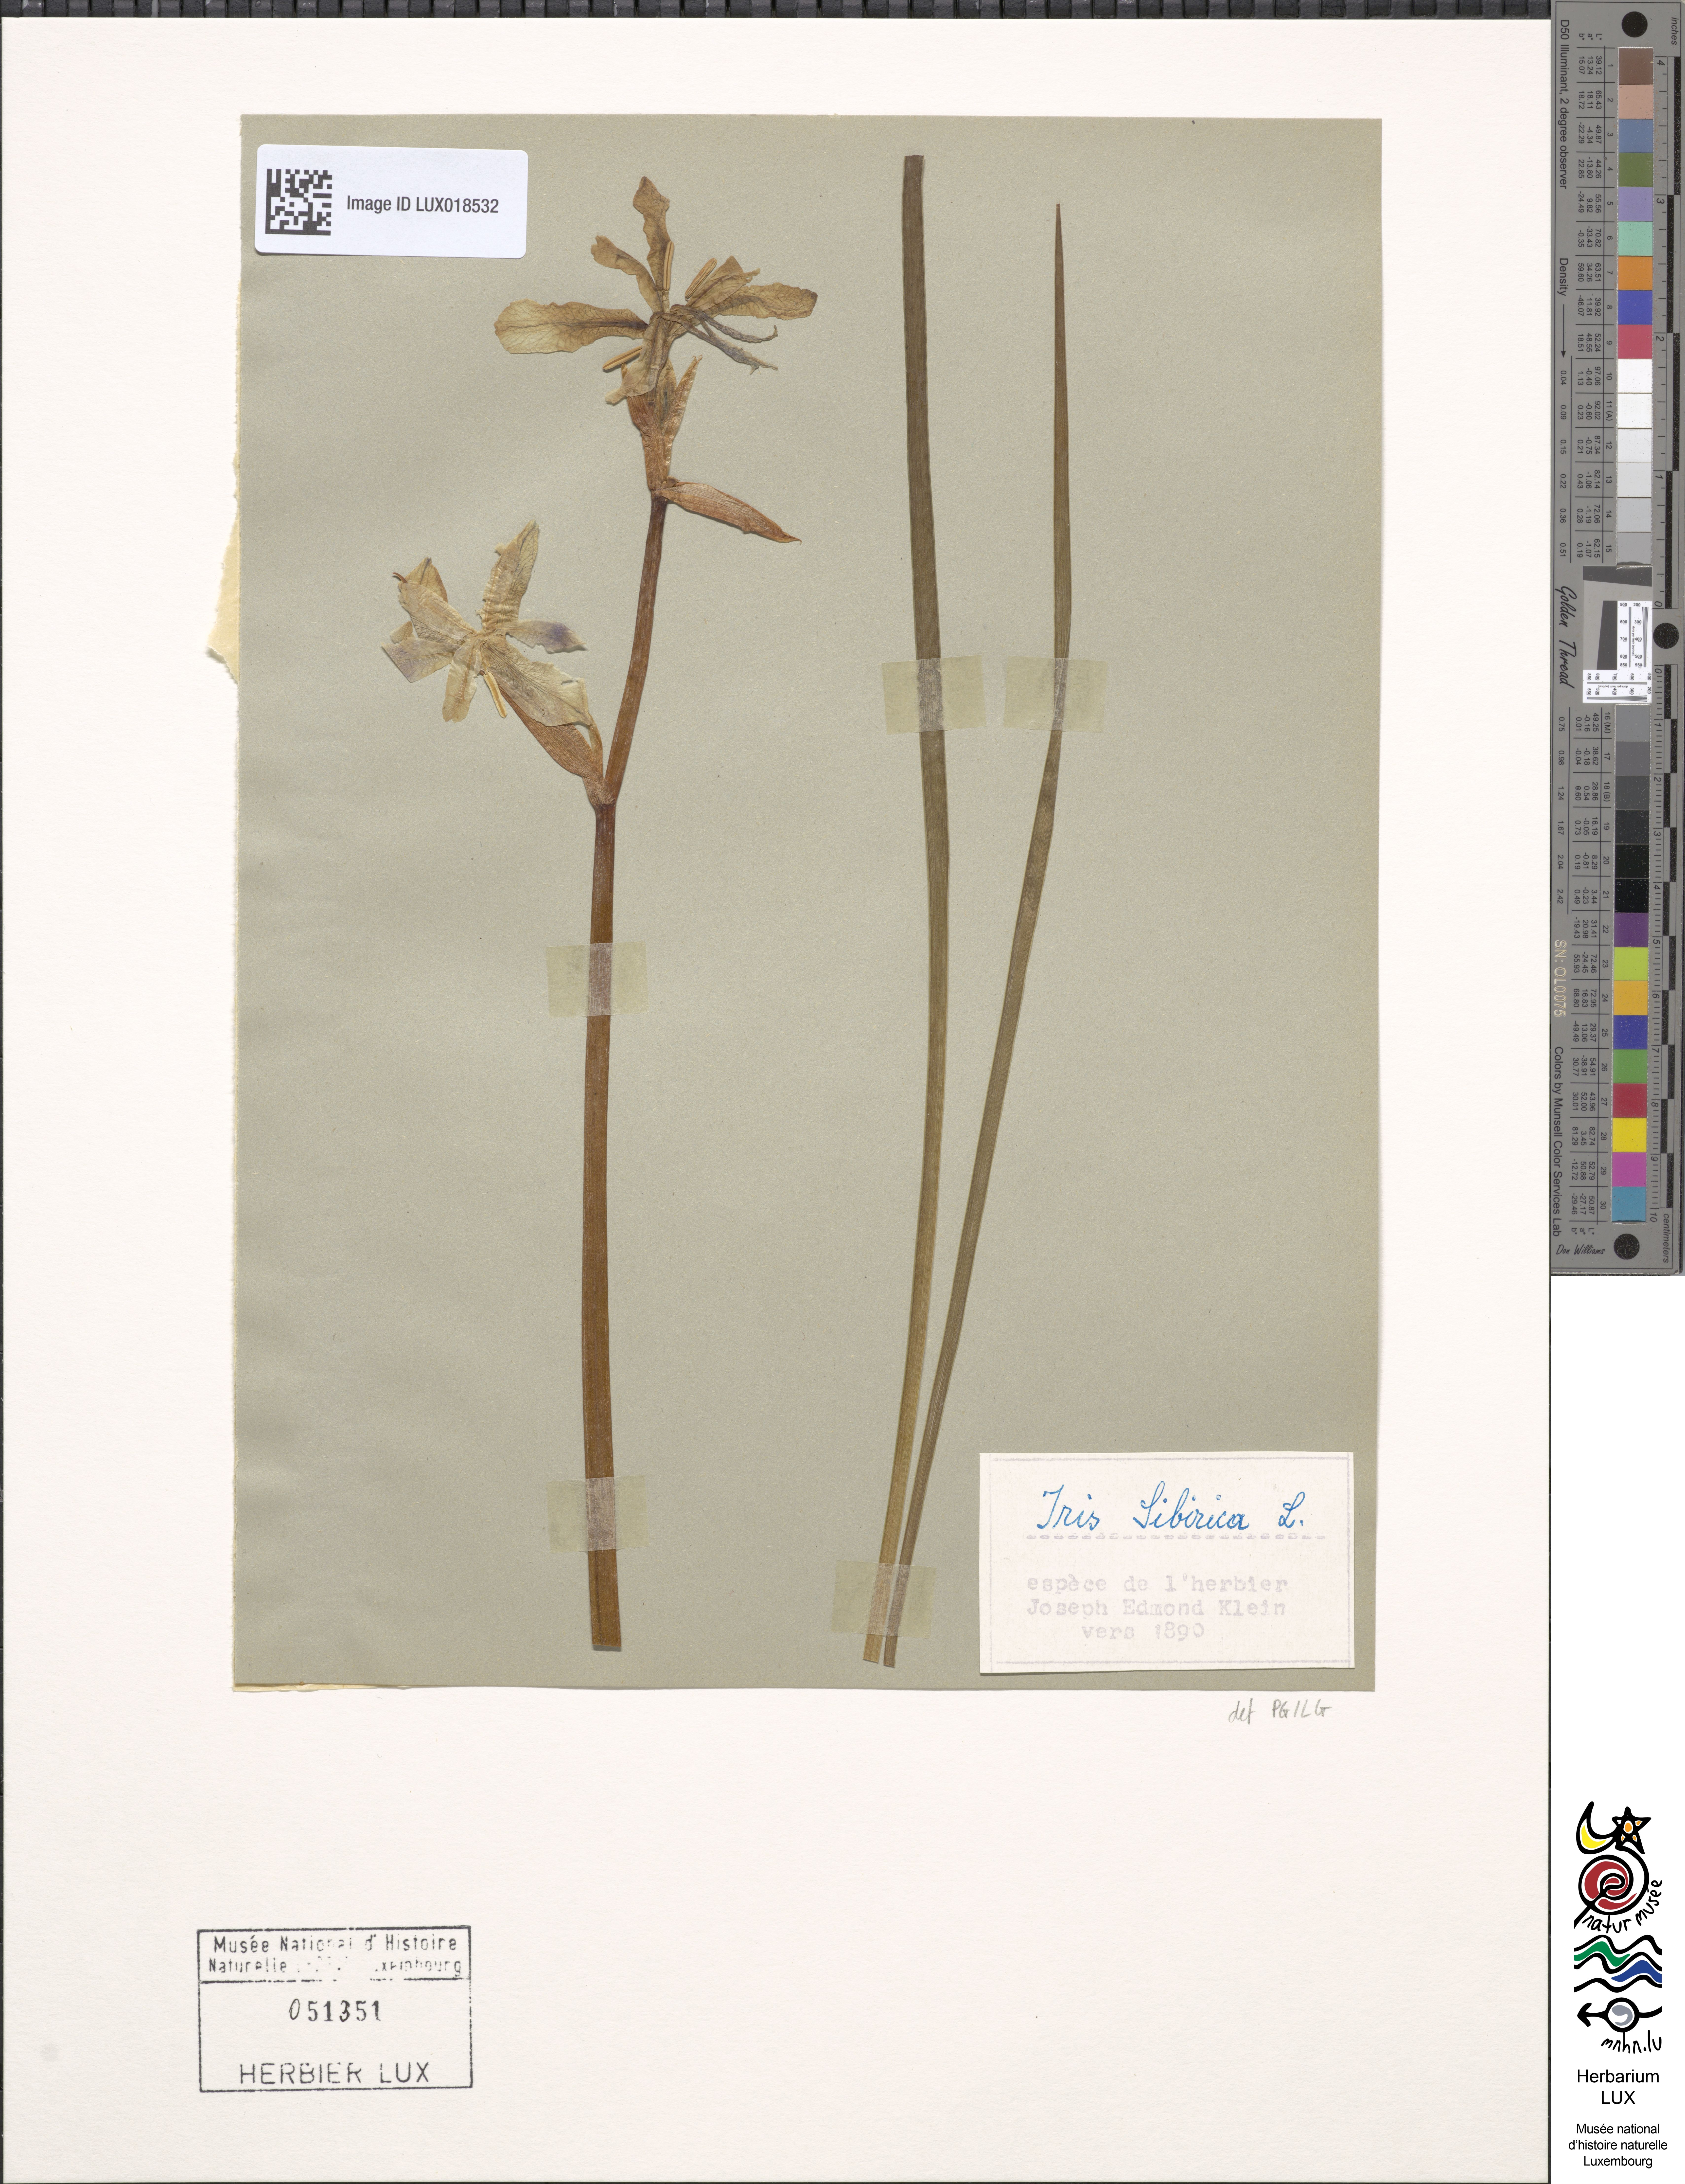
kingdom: Animalia
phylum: Arthropoda
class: Insecta
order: Mantodea
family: Eremiaphilidae
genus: Iris
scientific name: Iris
